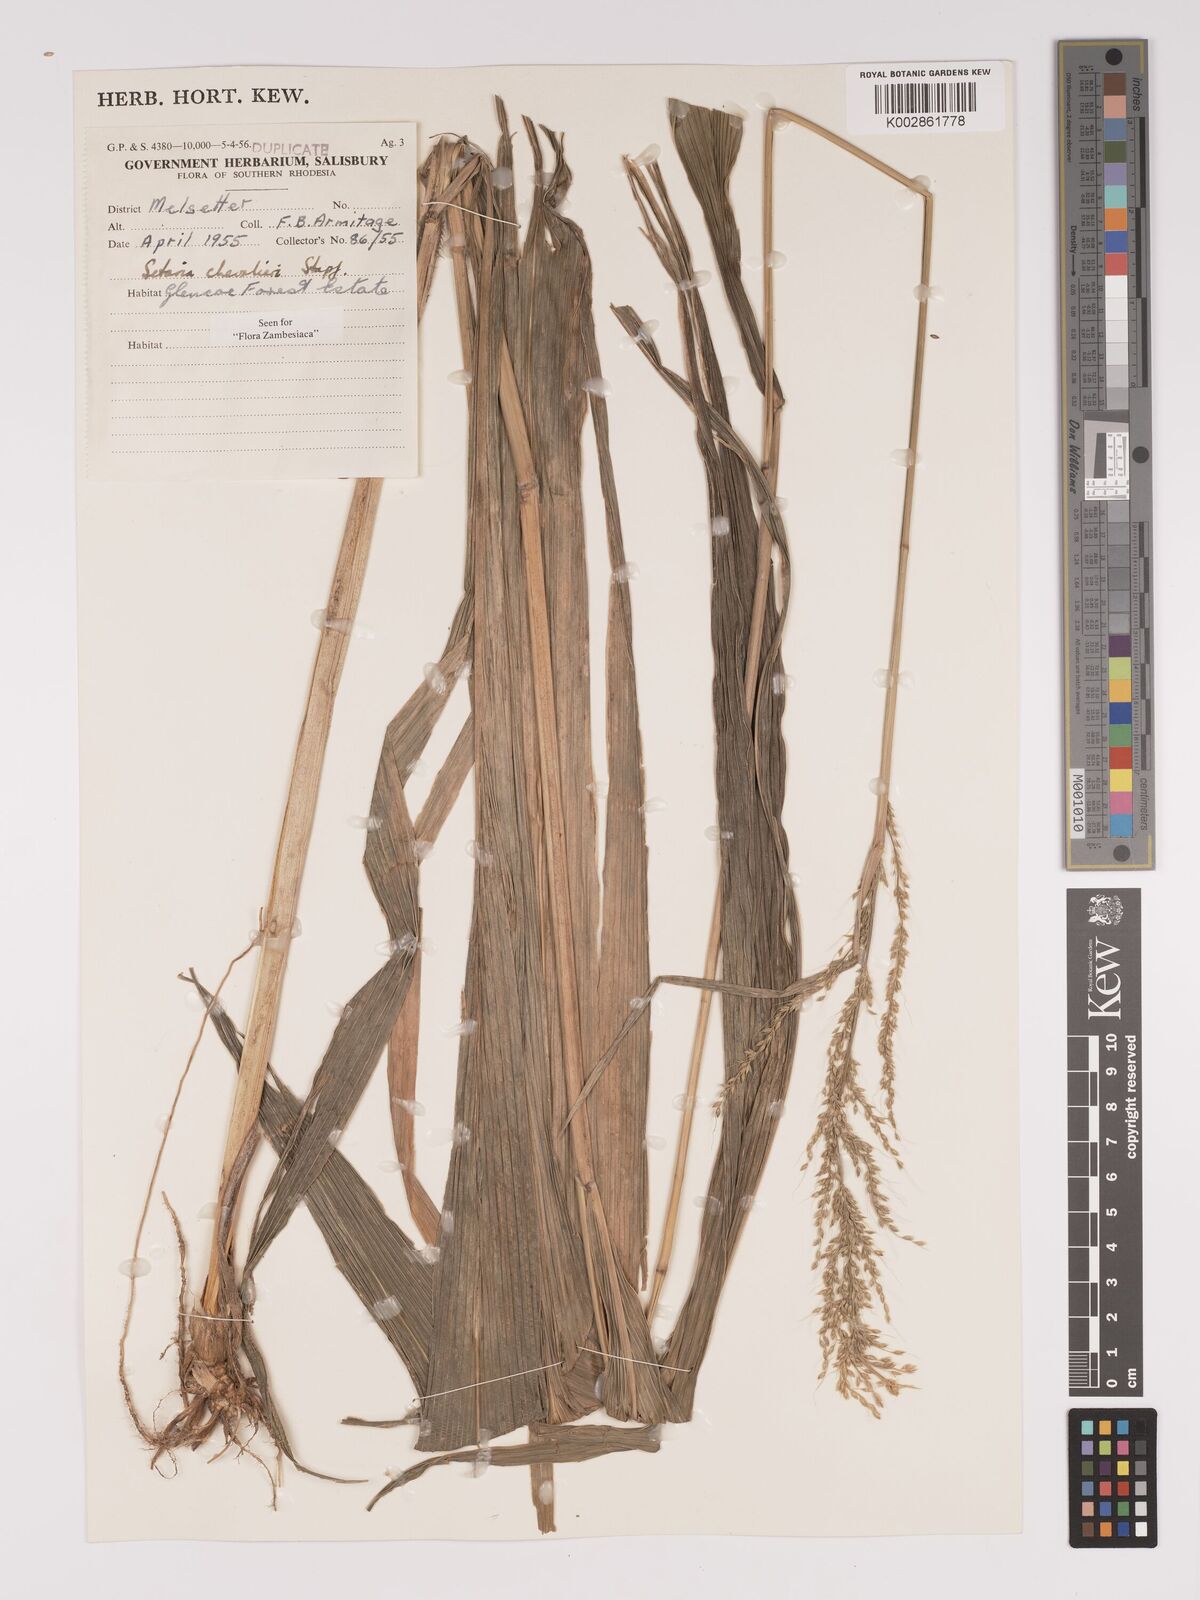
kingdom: Plantae
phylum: Tracheophyta
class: Liliopsida
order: Poales
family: Poaceae
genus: Setaria
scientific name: Setaria megaphylla
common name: Bigleaf bristlegrass
